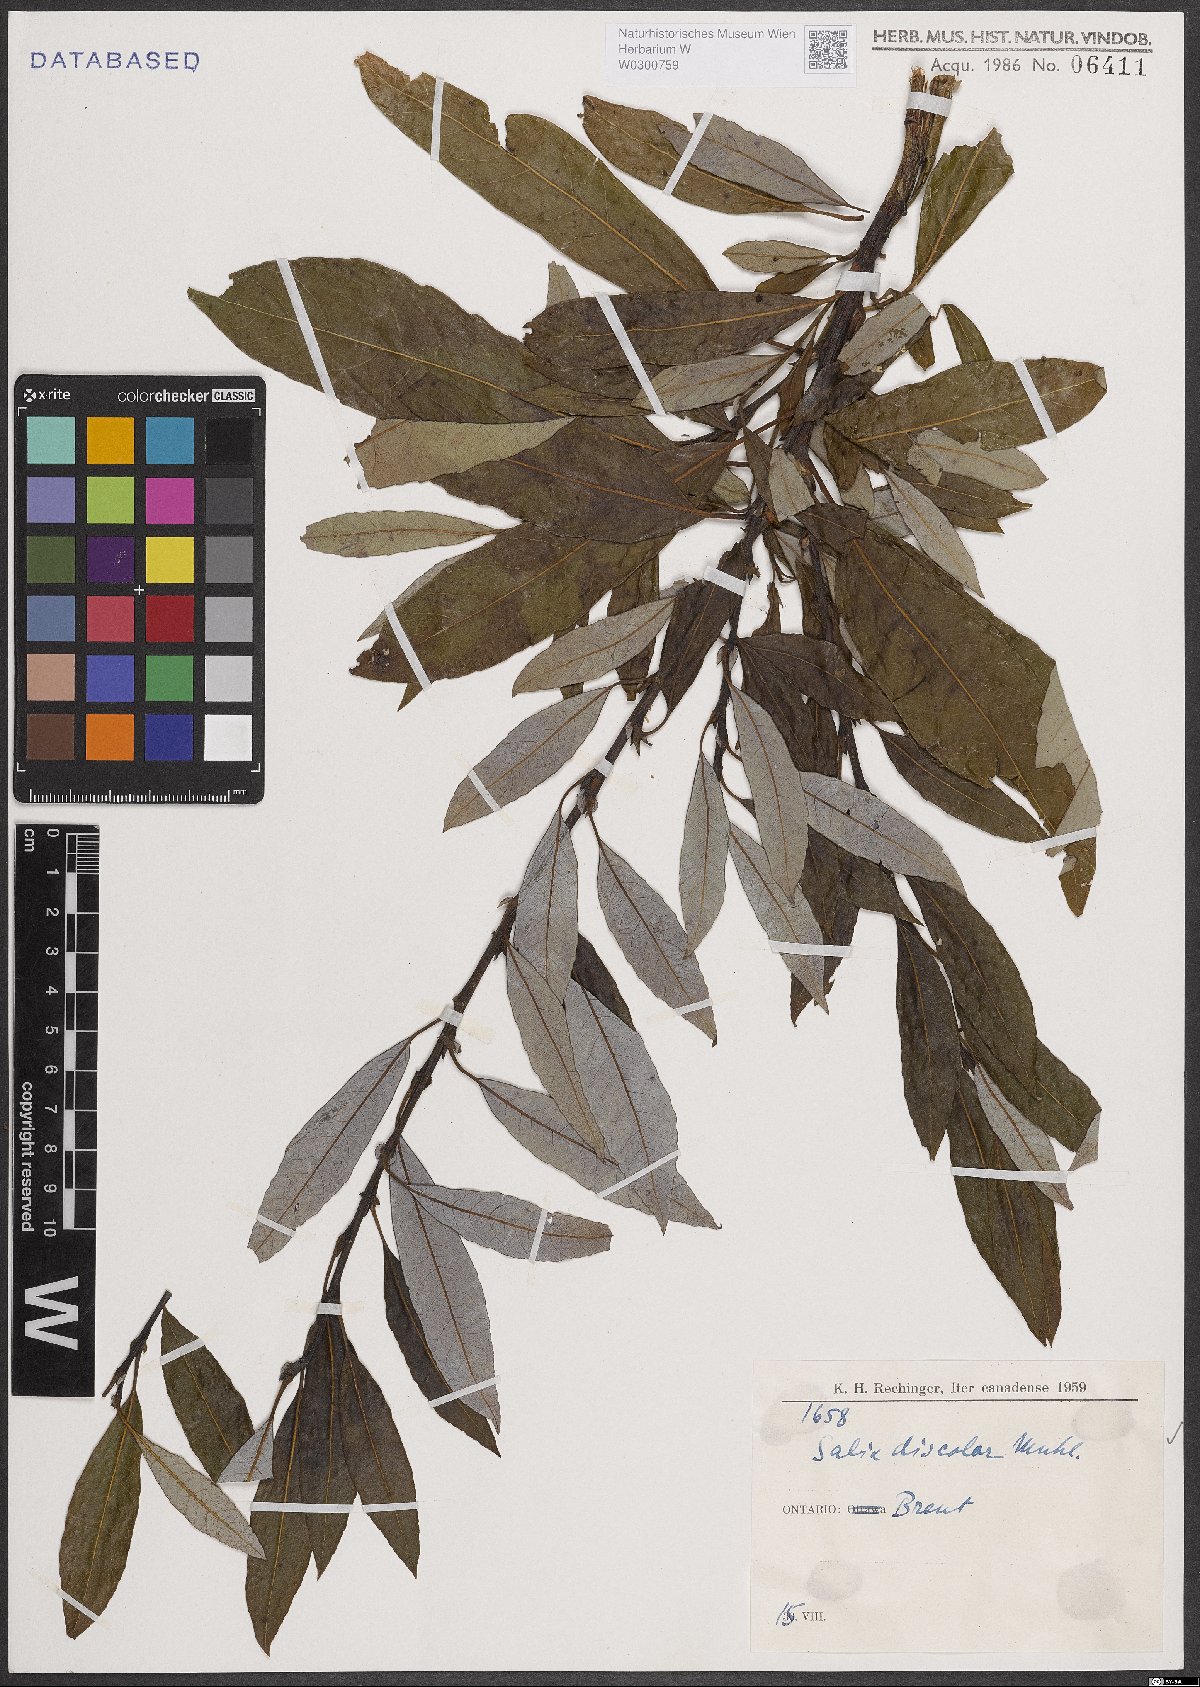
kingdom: Plantae
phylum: Tracheophyta
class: Magnoliopsida
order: Malpighiales
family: Salicaceae
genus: Salix
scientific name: Salix discolor
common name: Glaucous willow
